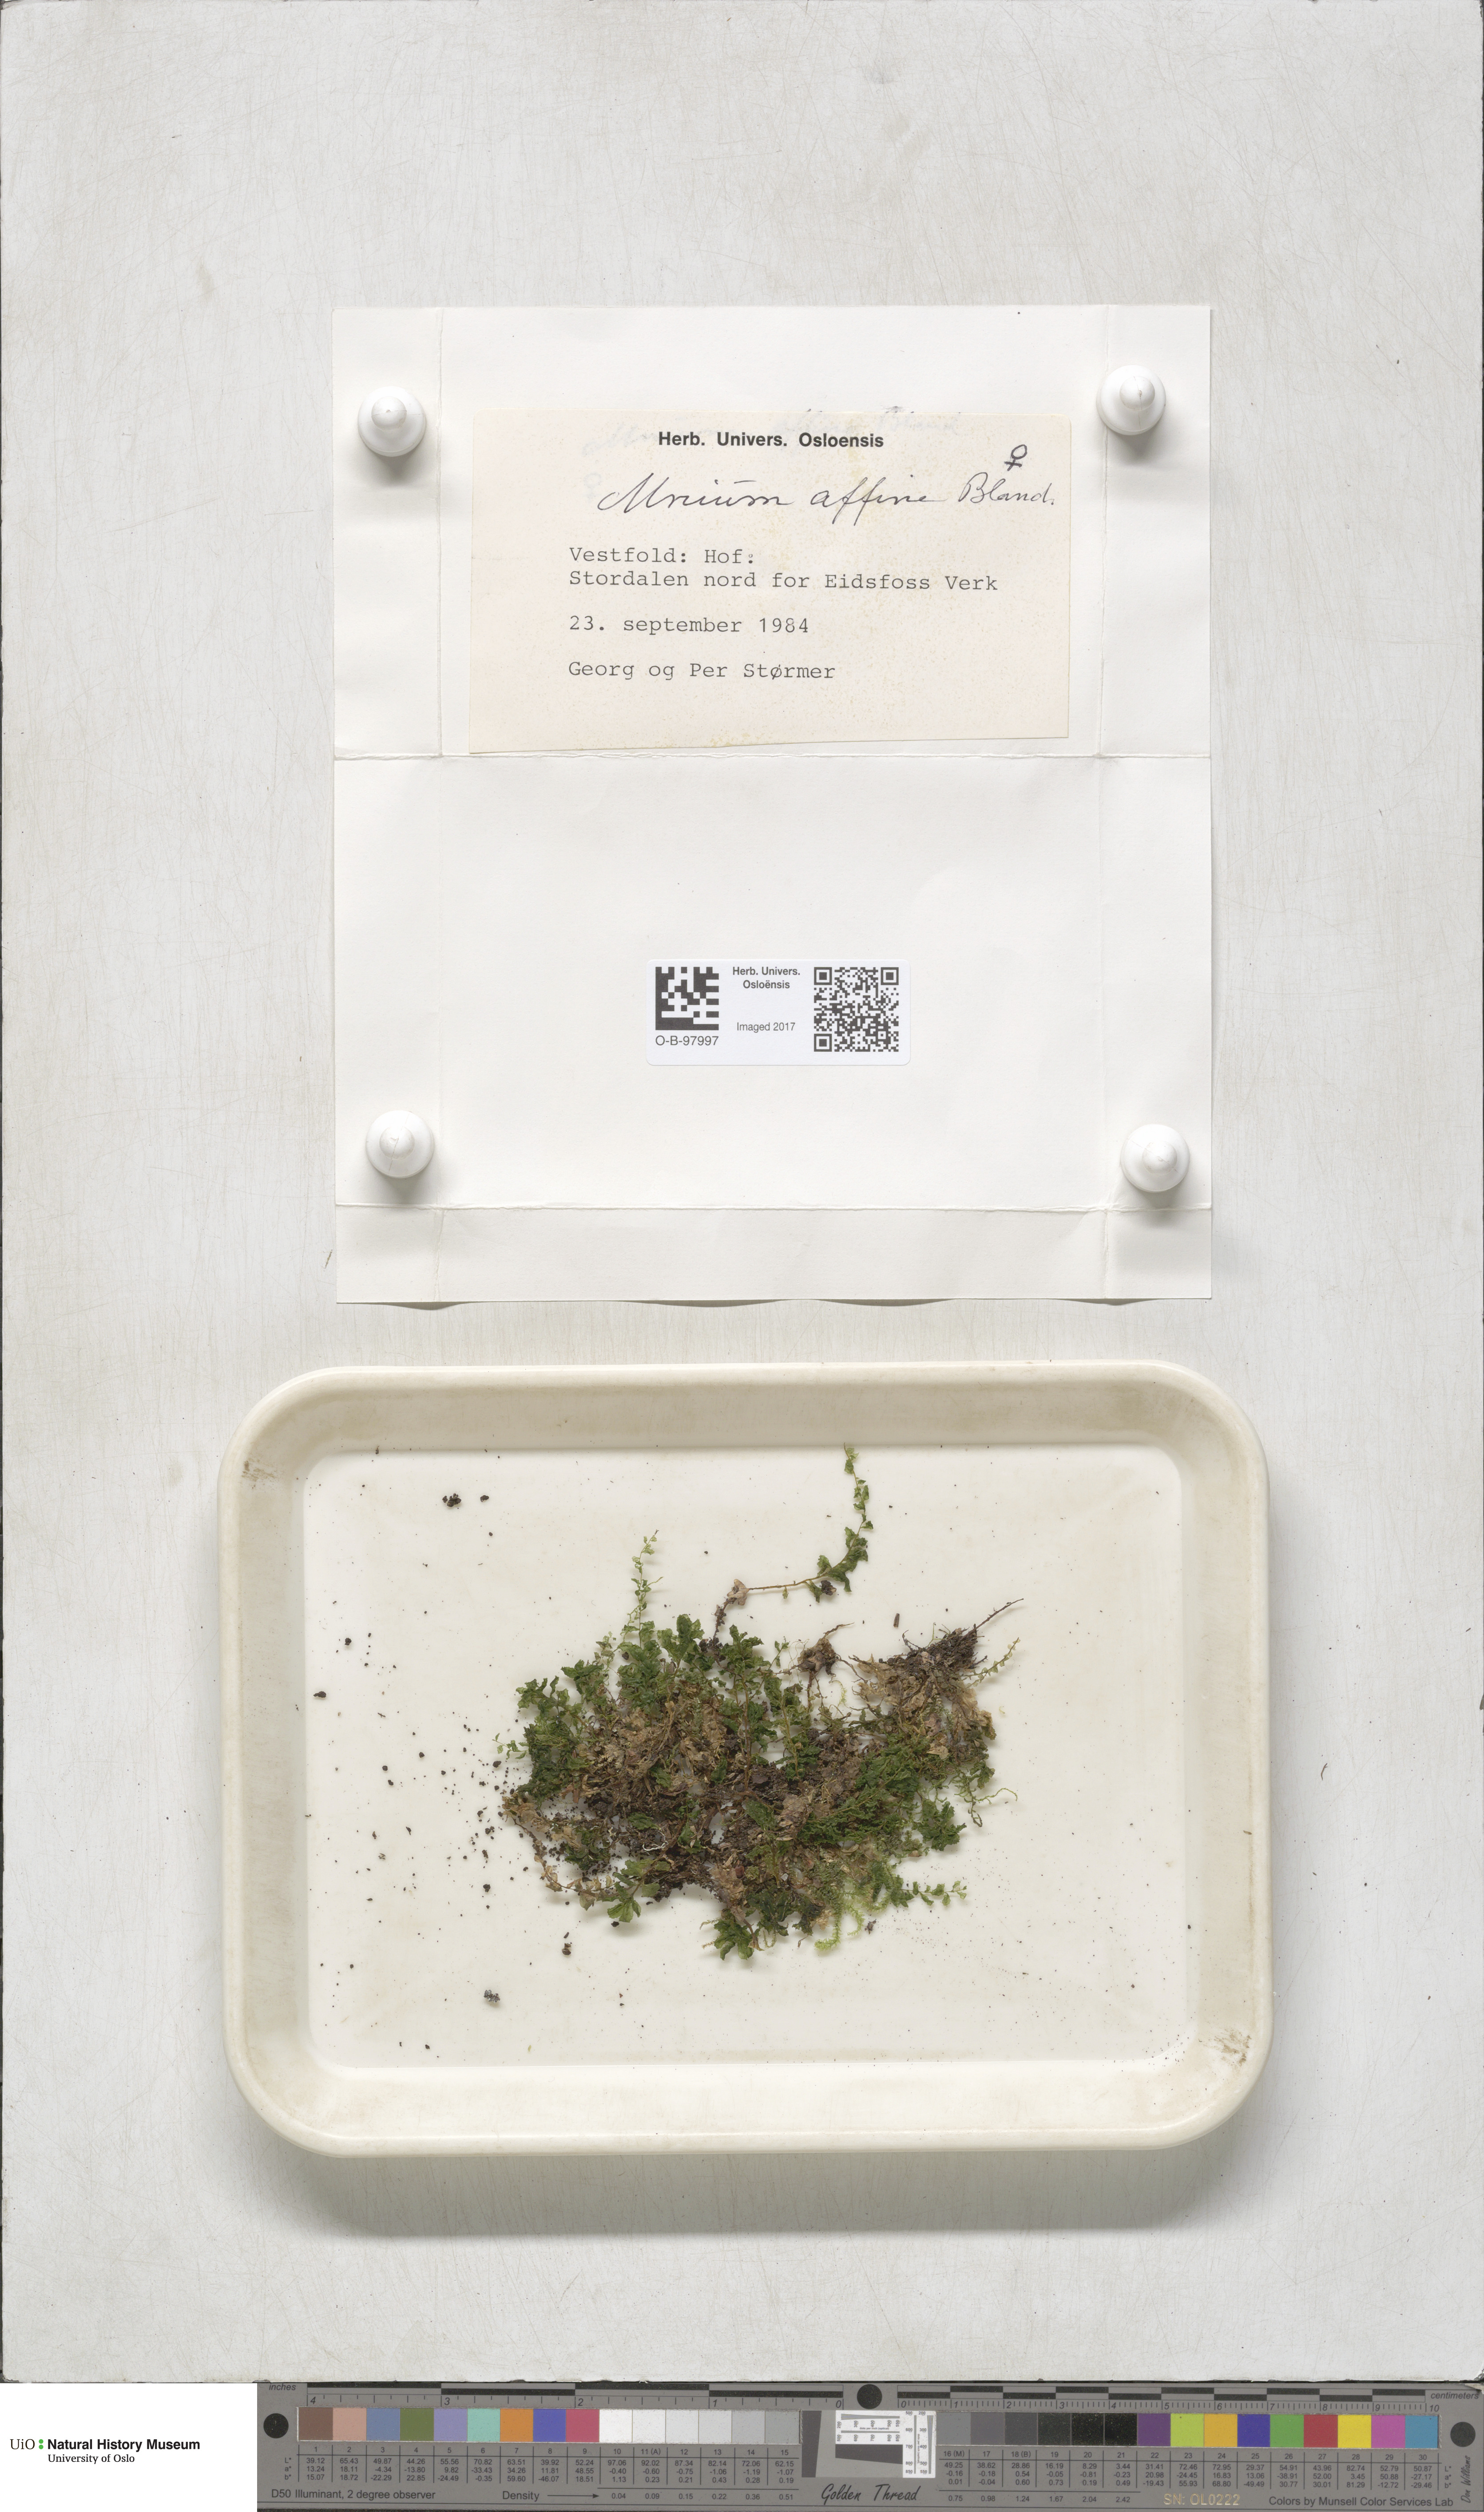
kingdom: Plantae
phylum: Bryophyta
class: Bryopsida
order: Bryales
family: Mniaceae
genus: Plagiomnium
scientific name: Plagiomnium affine
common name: Many-fruited thyme-moss
